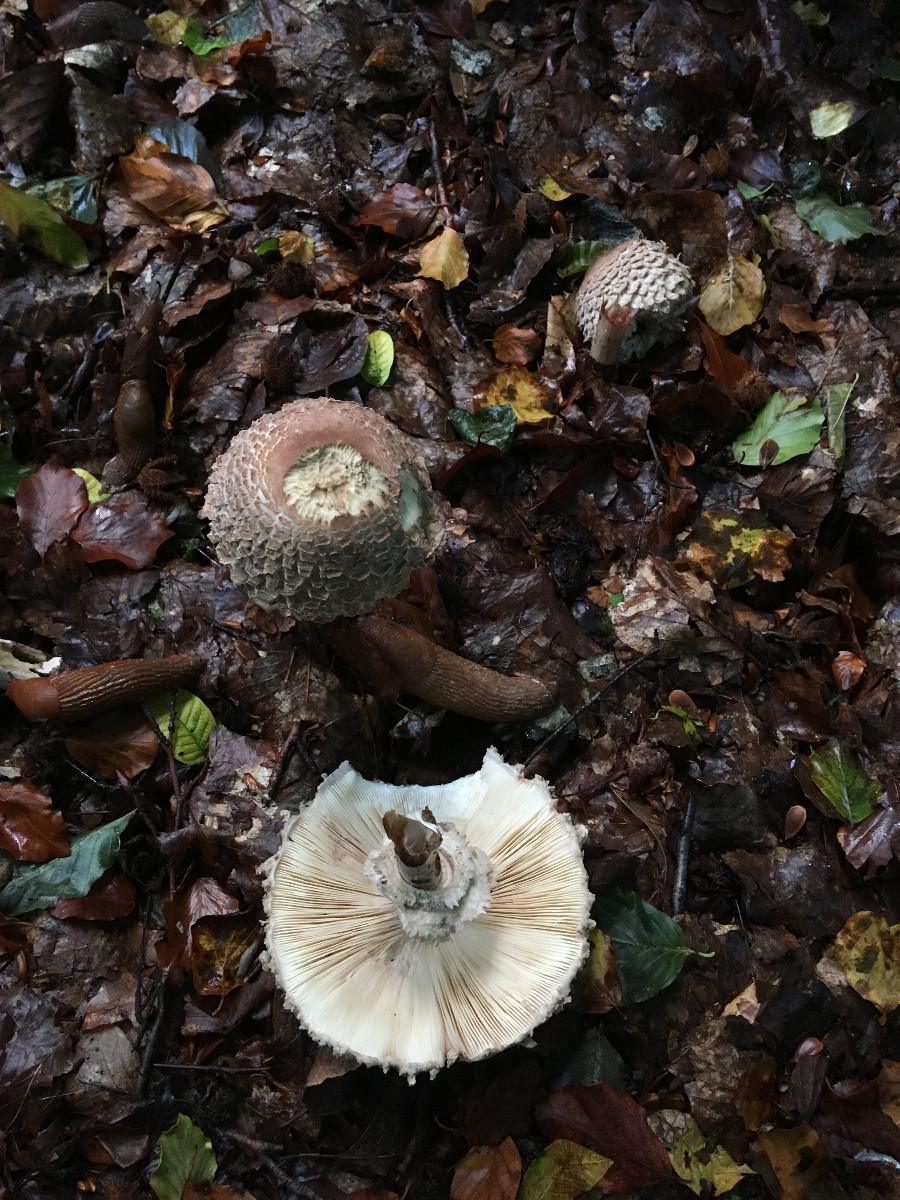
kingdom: Fungi
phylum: Basidiomycota
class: Agaricomycetes
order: Agaricales
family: Agaricaceae
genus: Chlorophyllum
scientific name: Chlorophyllum olivieri
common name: almindelig rabarberhat
